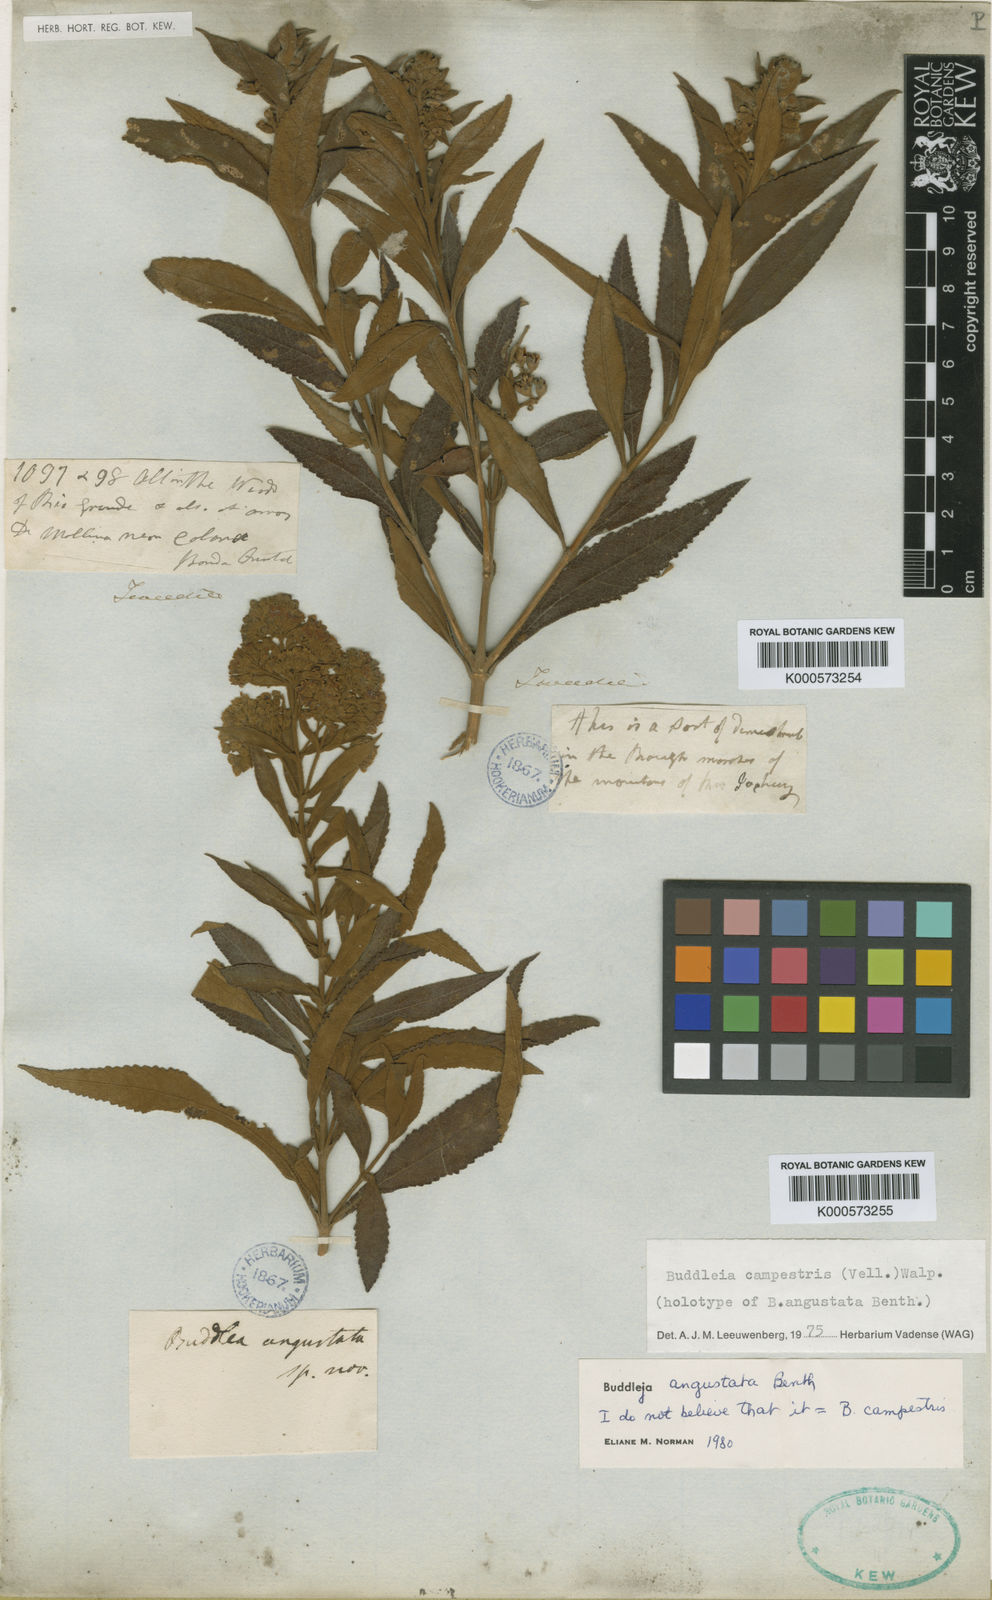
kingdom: Plantae
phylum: Tracheophyta
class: Magnoliopsida
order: Lamiales
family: Scrophulariaceae
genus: Buddleja
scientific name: Buddleja elegans
